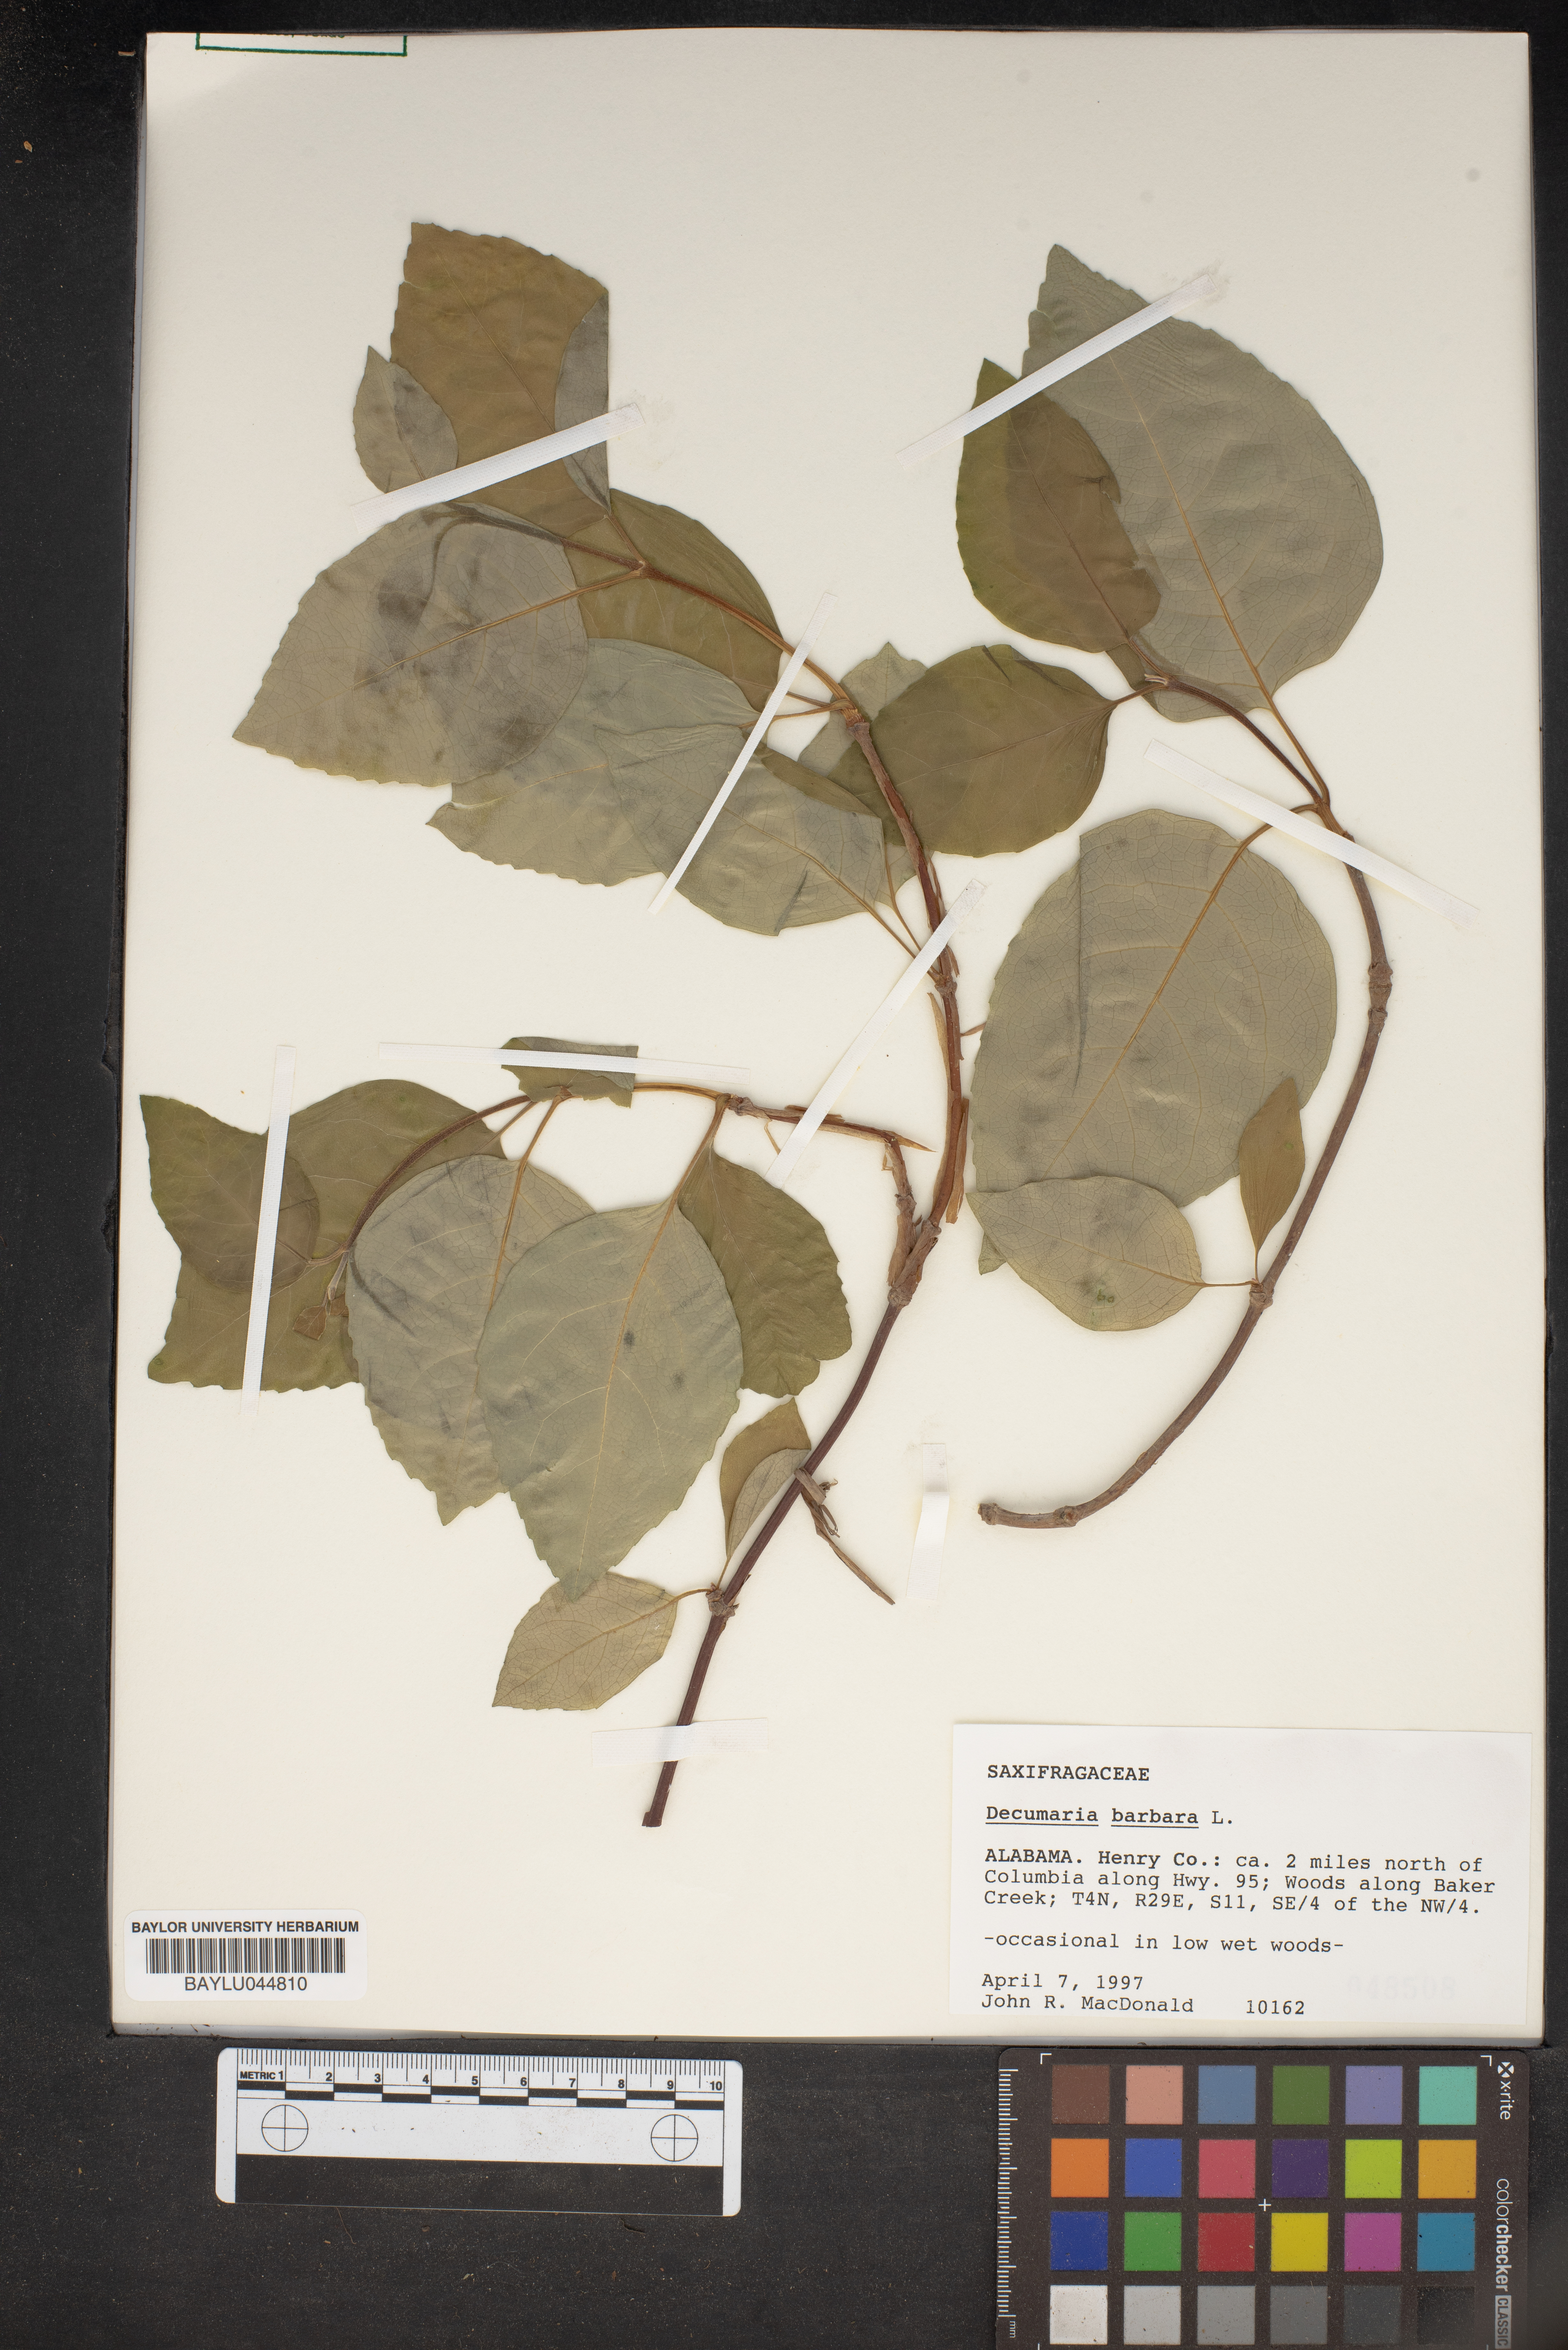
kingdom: Plantae
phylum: Tracheophyta
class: Magnoliopsida
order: Cornales
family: Hydrangeaceae
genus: Hydrangea
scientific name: Hydrangea barbara
